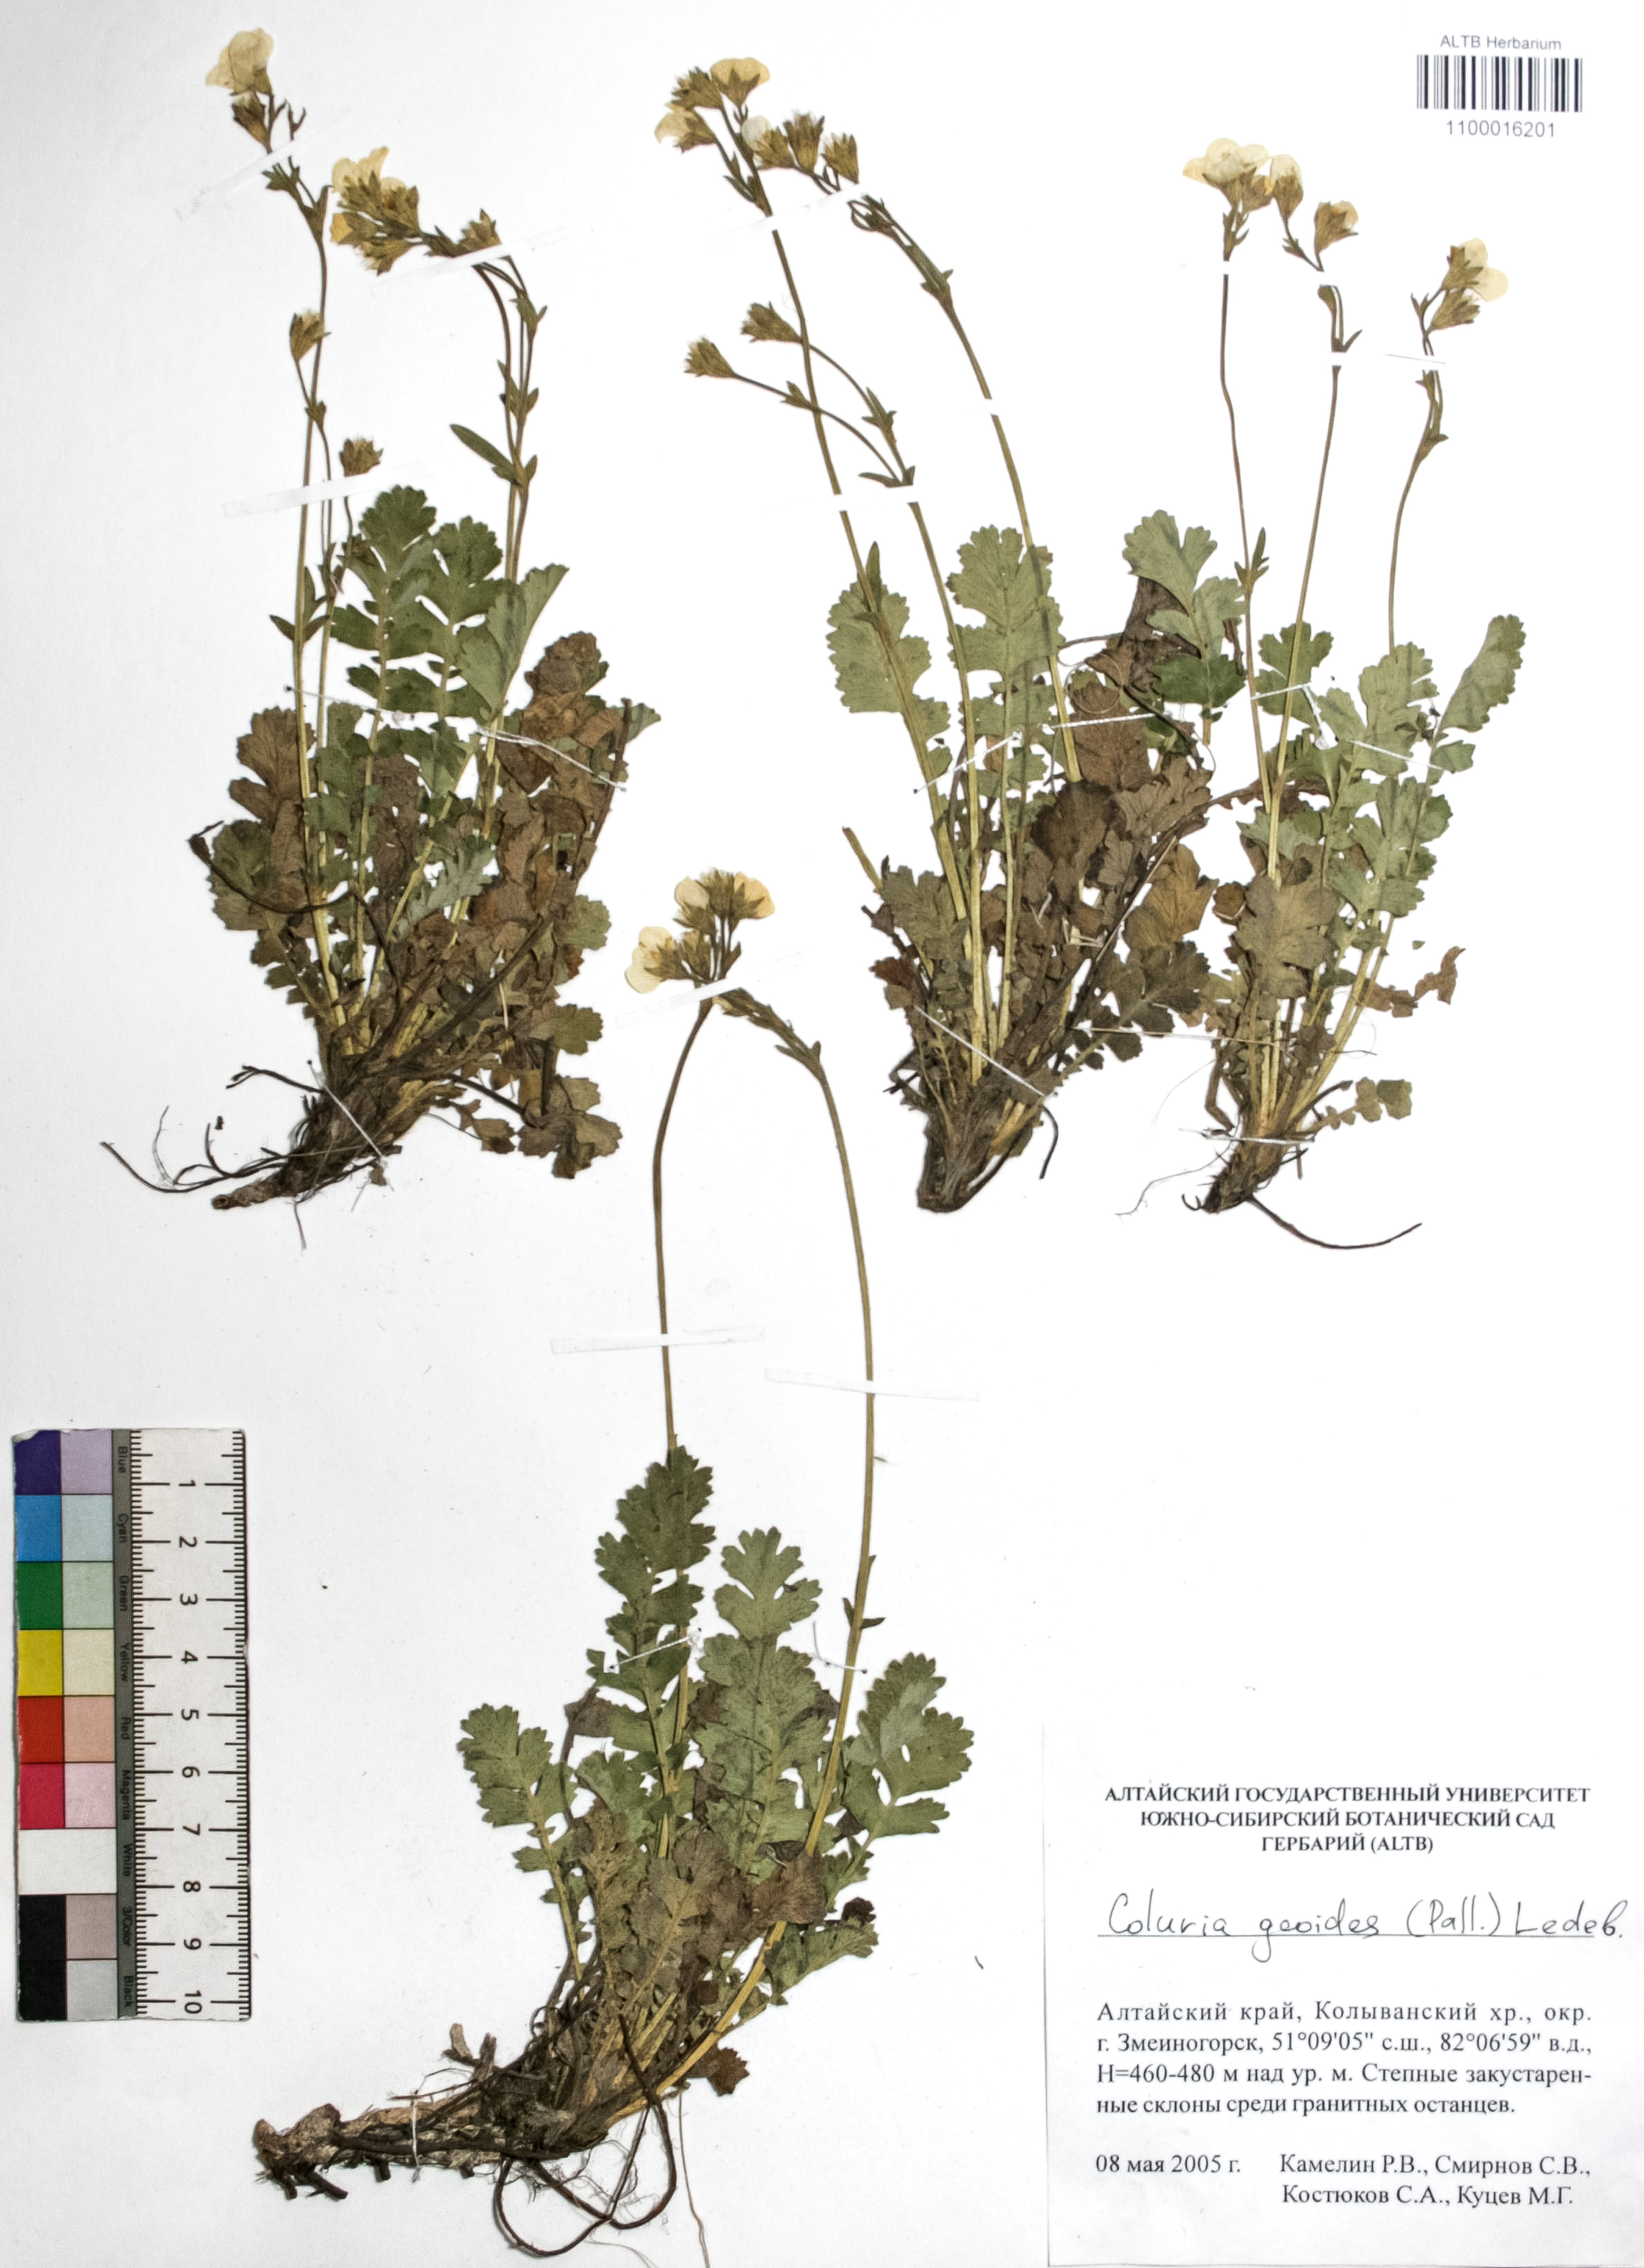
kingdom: Plantae
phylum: Tracheophyta
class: Magnoliopsida
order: Rosales
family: Rosaceae
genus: Geum
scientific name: Geum geoides
